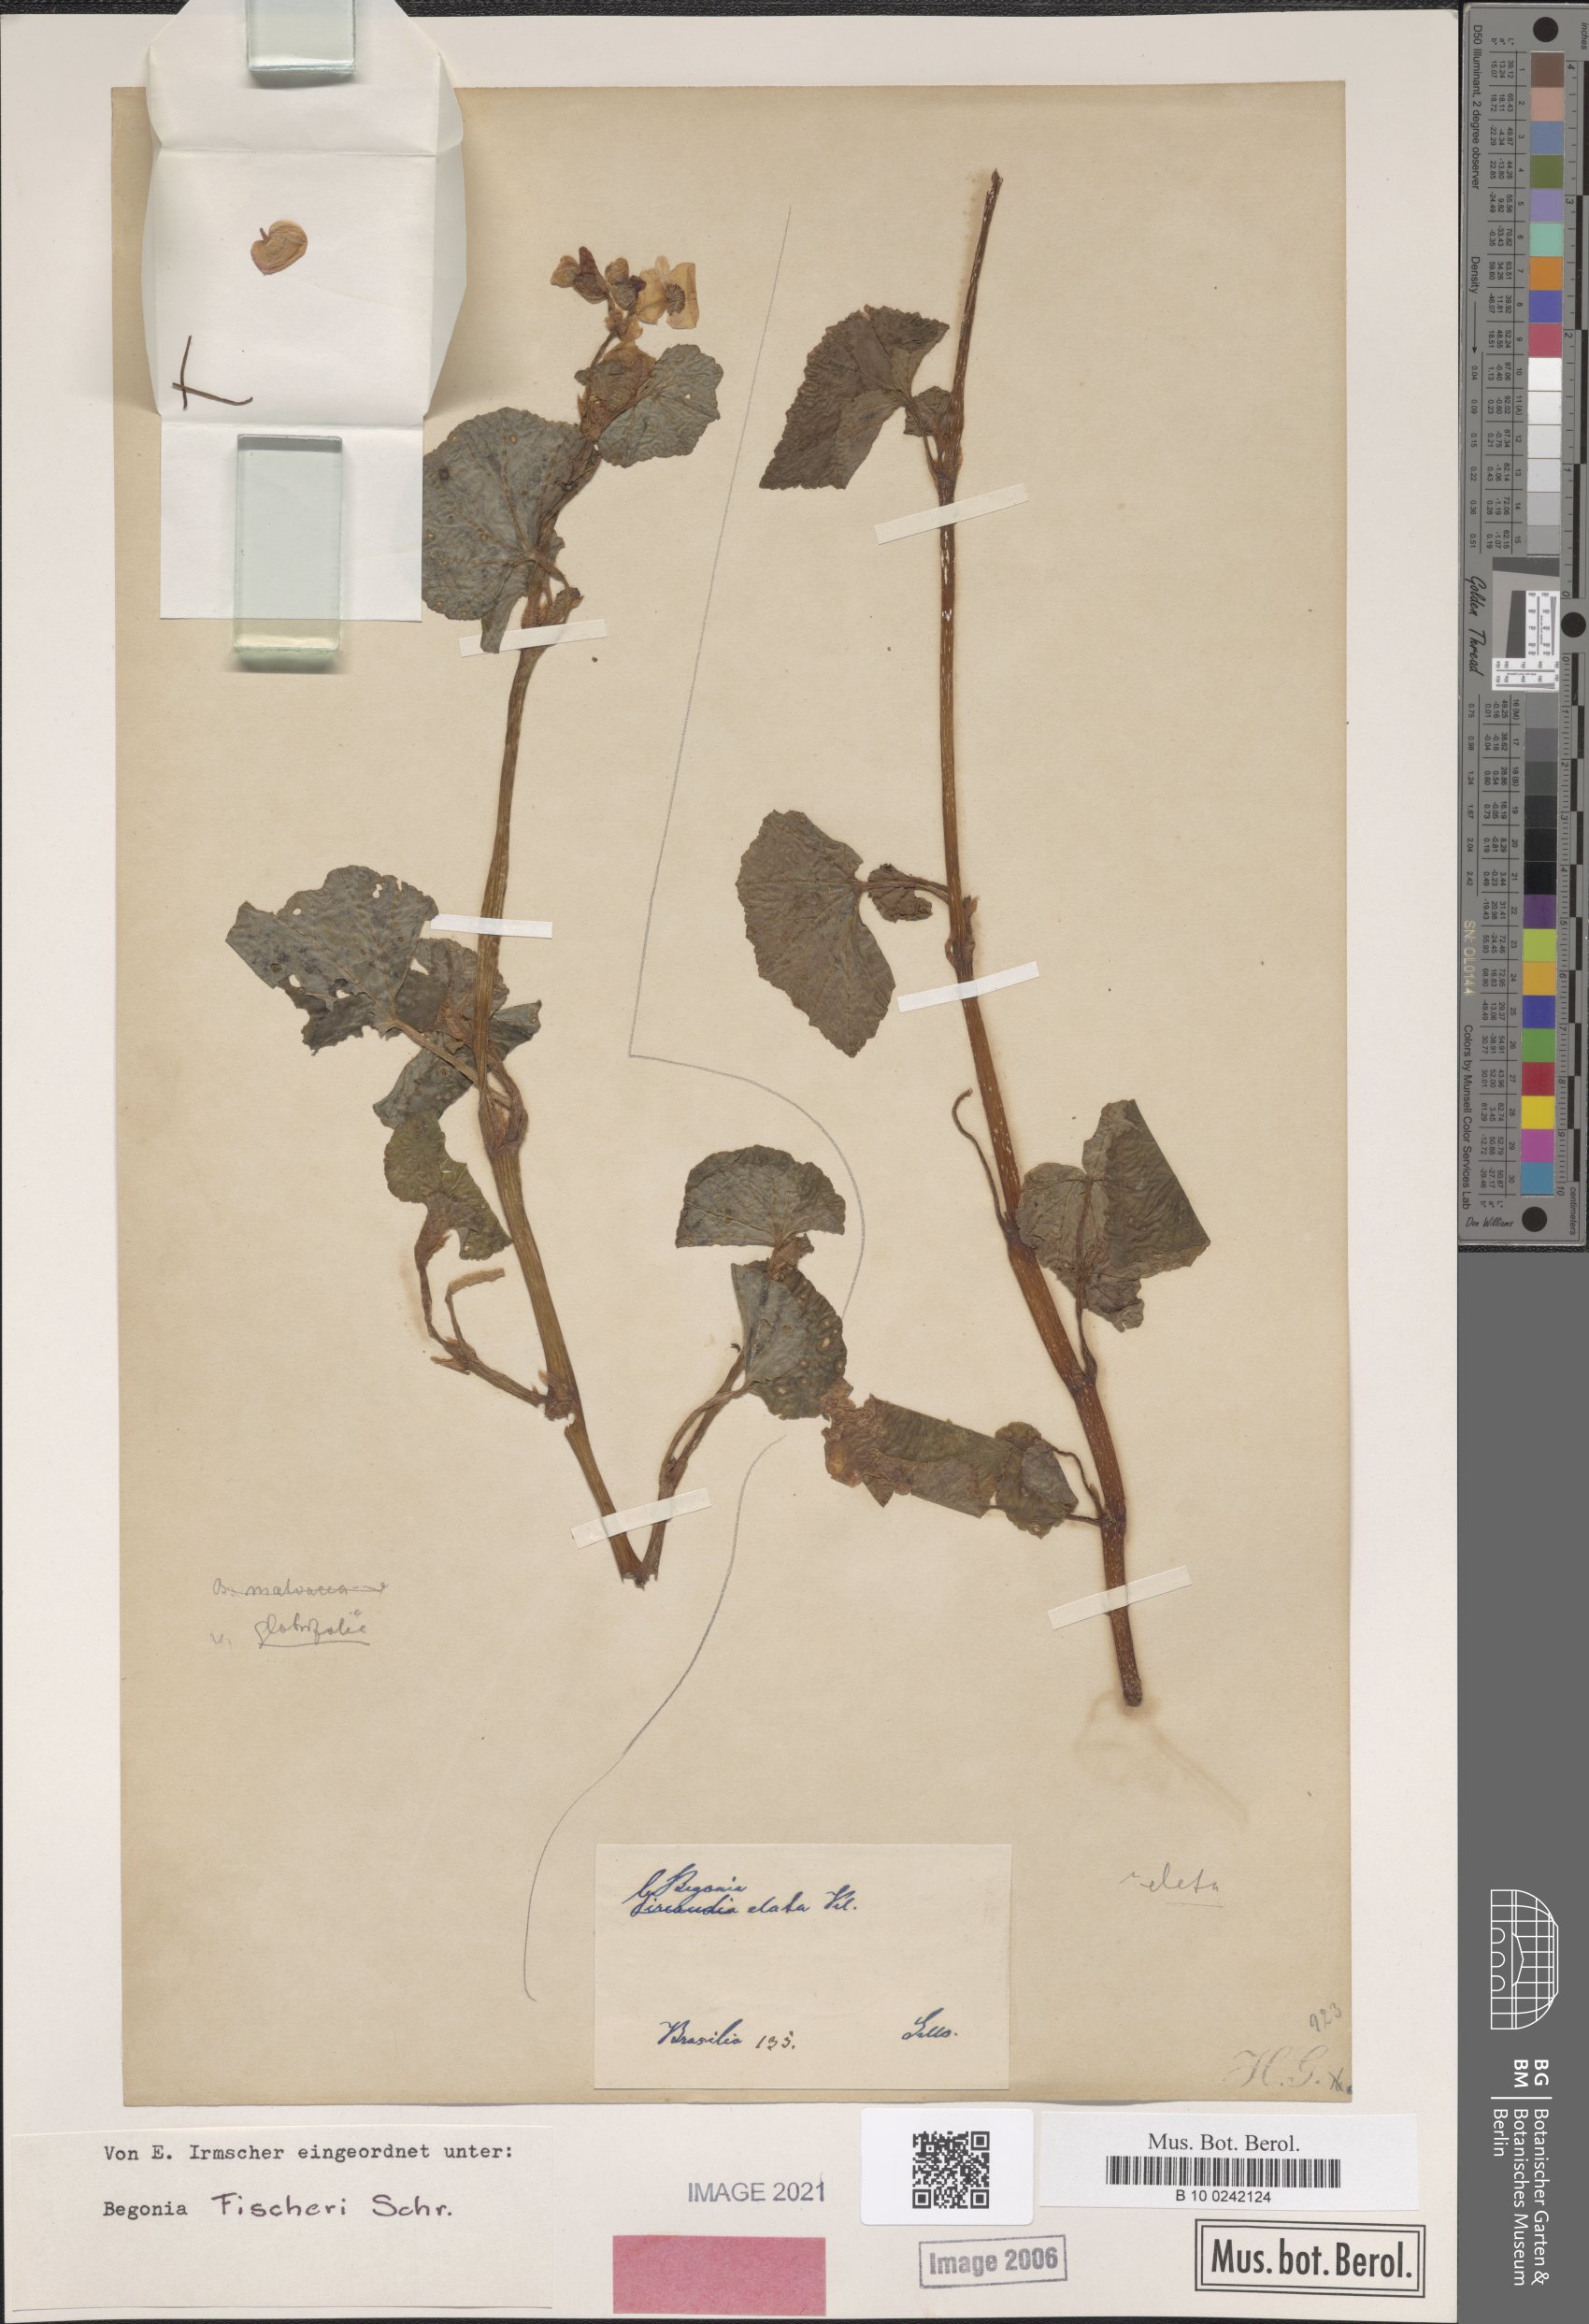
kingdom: Plantae
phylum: Tracheophyta
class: Magnoliopsida
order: Cucurbitales
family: Begoniaceae
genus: Begonia
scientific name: Begonia fischeri
